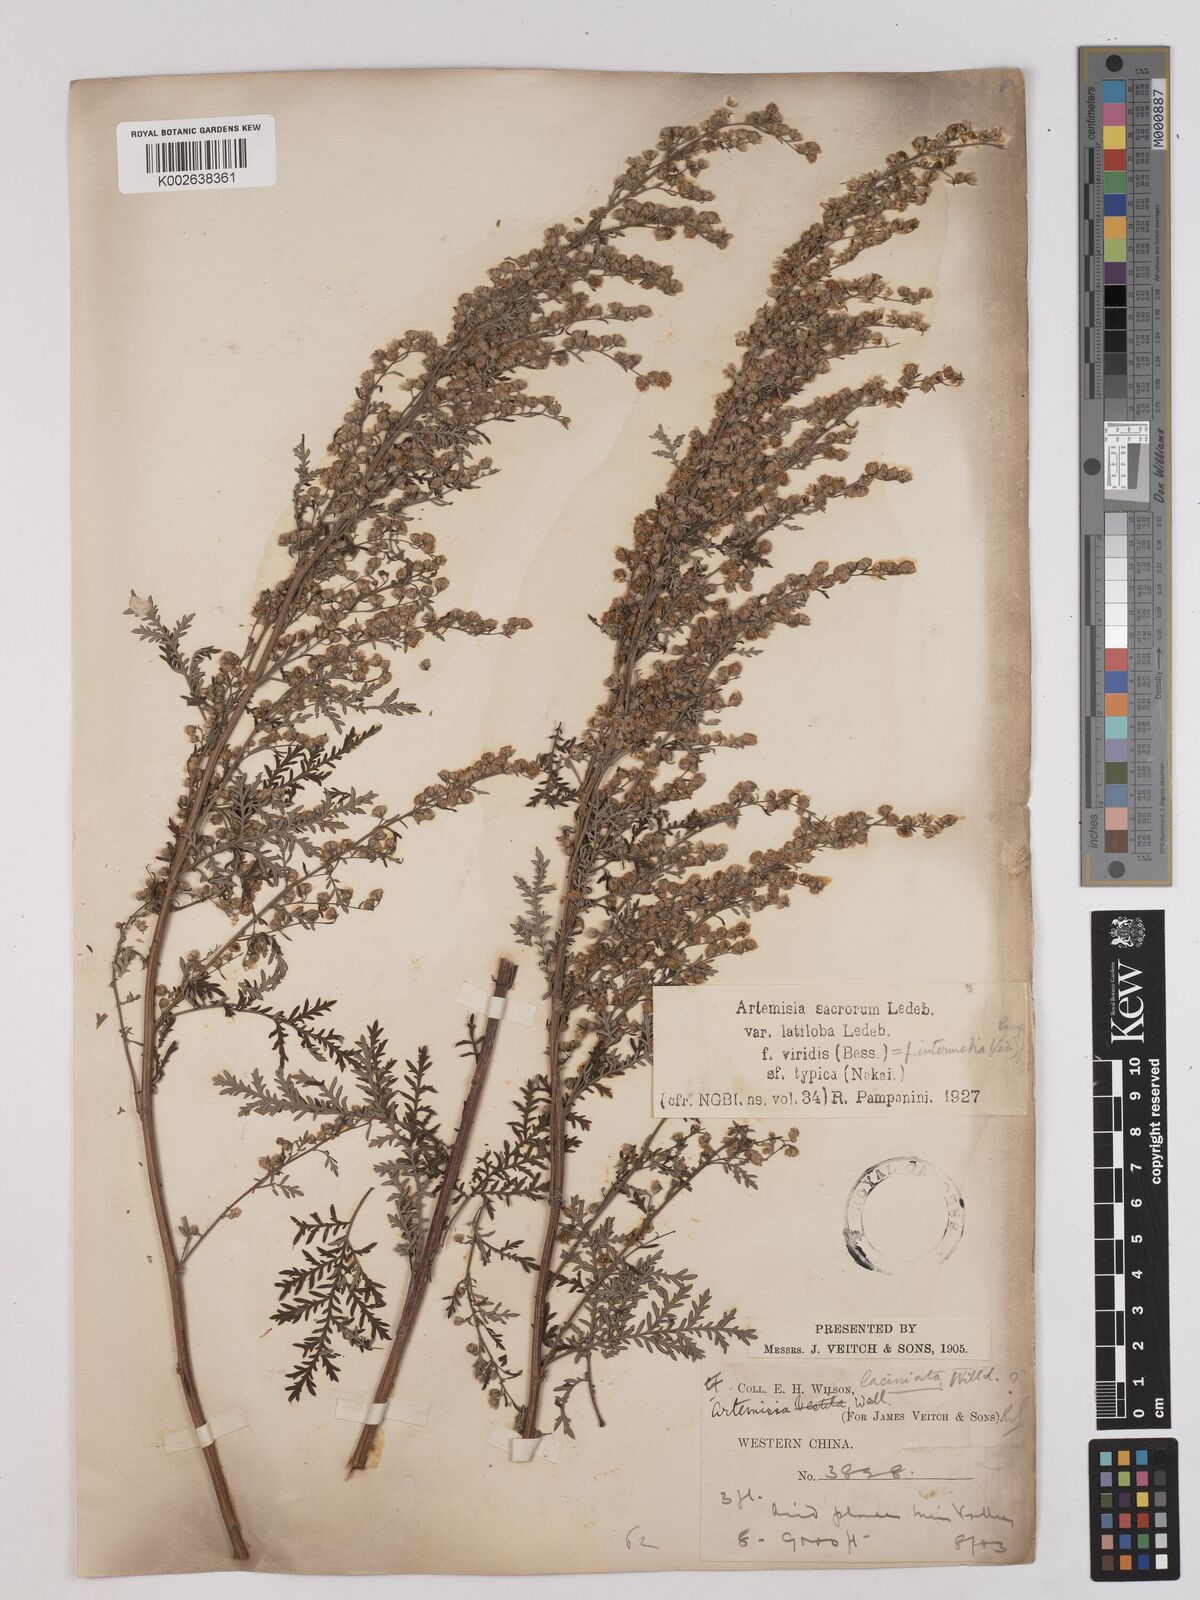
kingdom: Plantae
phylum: Tracheophyta
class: Magnoliopsida
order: Asterales
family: Asteraceae
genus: Artemisia
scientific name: Artemisia gmelinii
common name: Gmelin's wormwood
